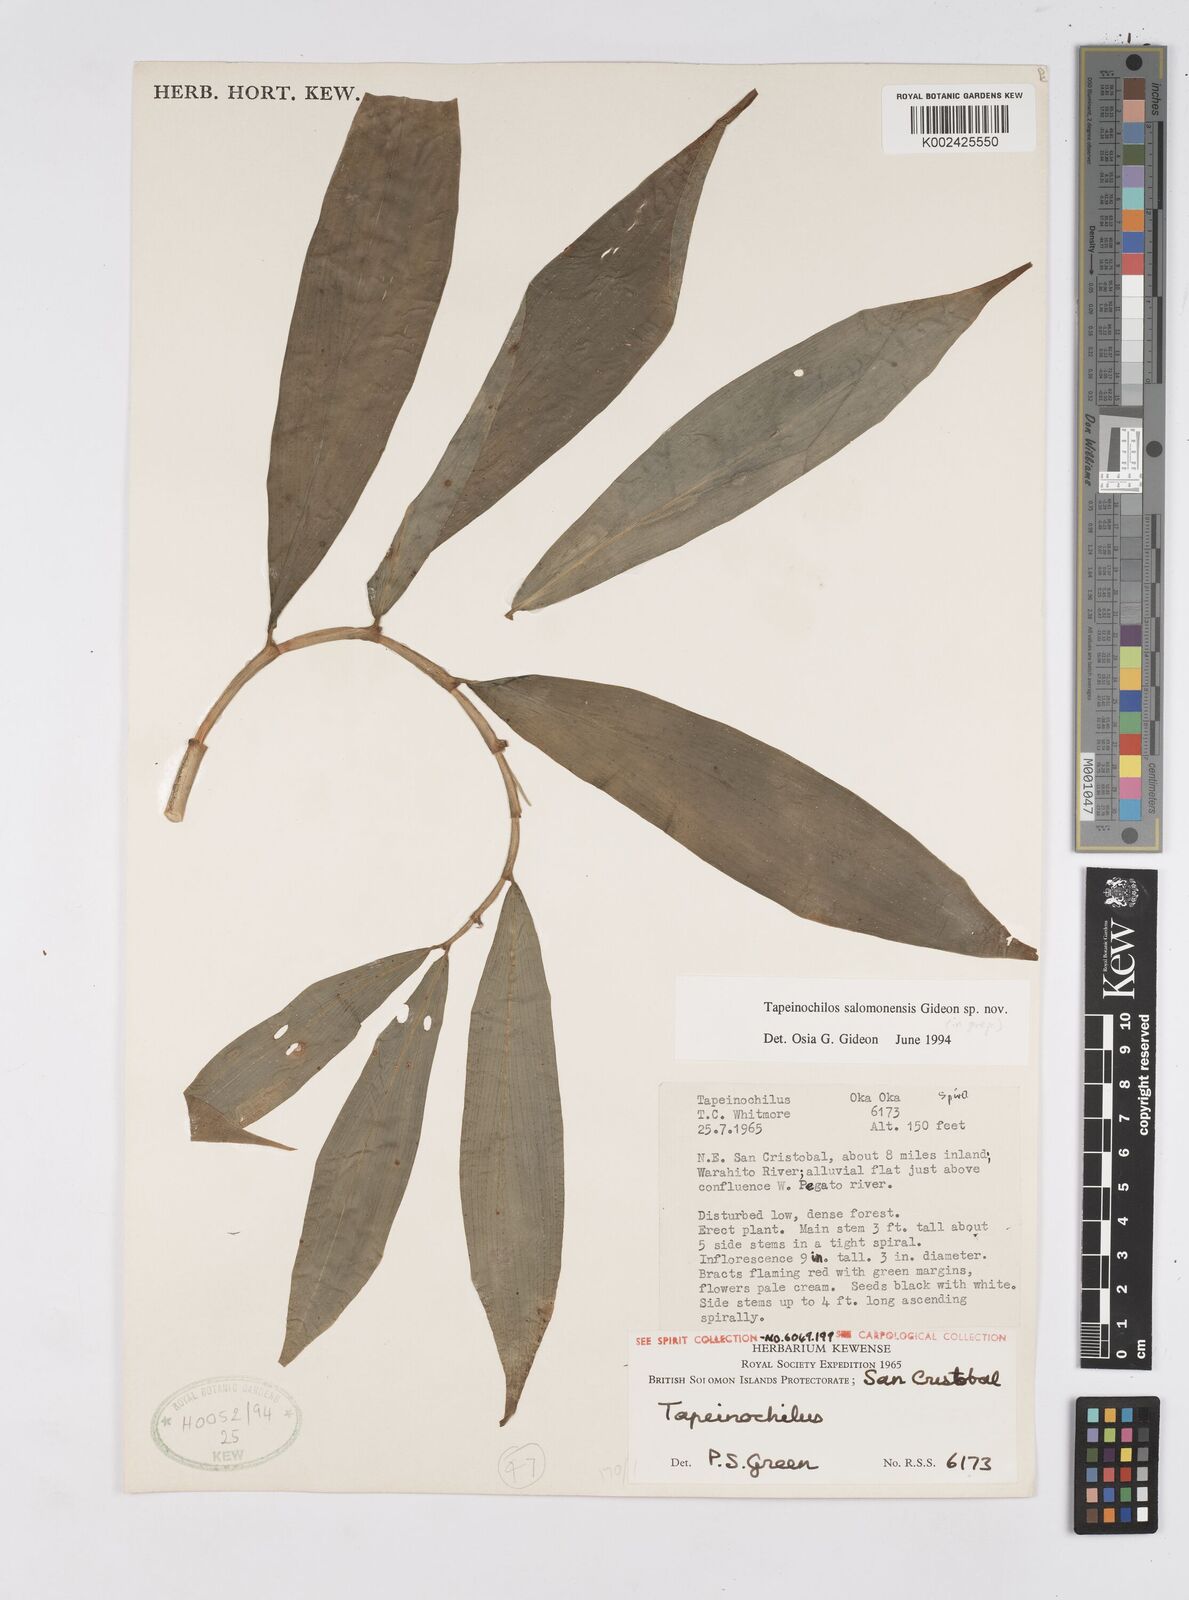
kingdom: Plantae
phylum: Tracheophyta
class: Liliopsida
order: Zingiberales
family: Costaceae
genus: Tapeinochilos
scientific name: Tapeinochilos
